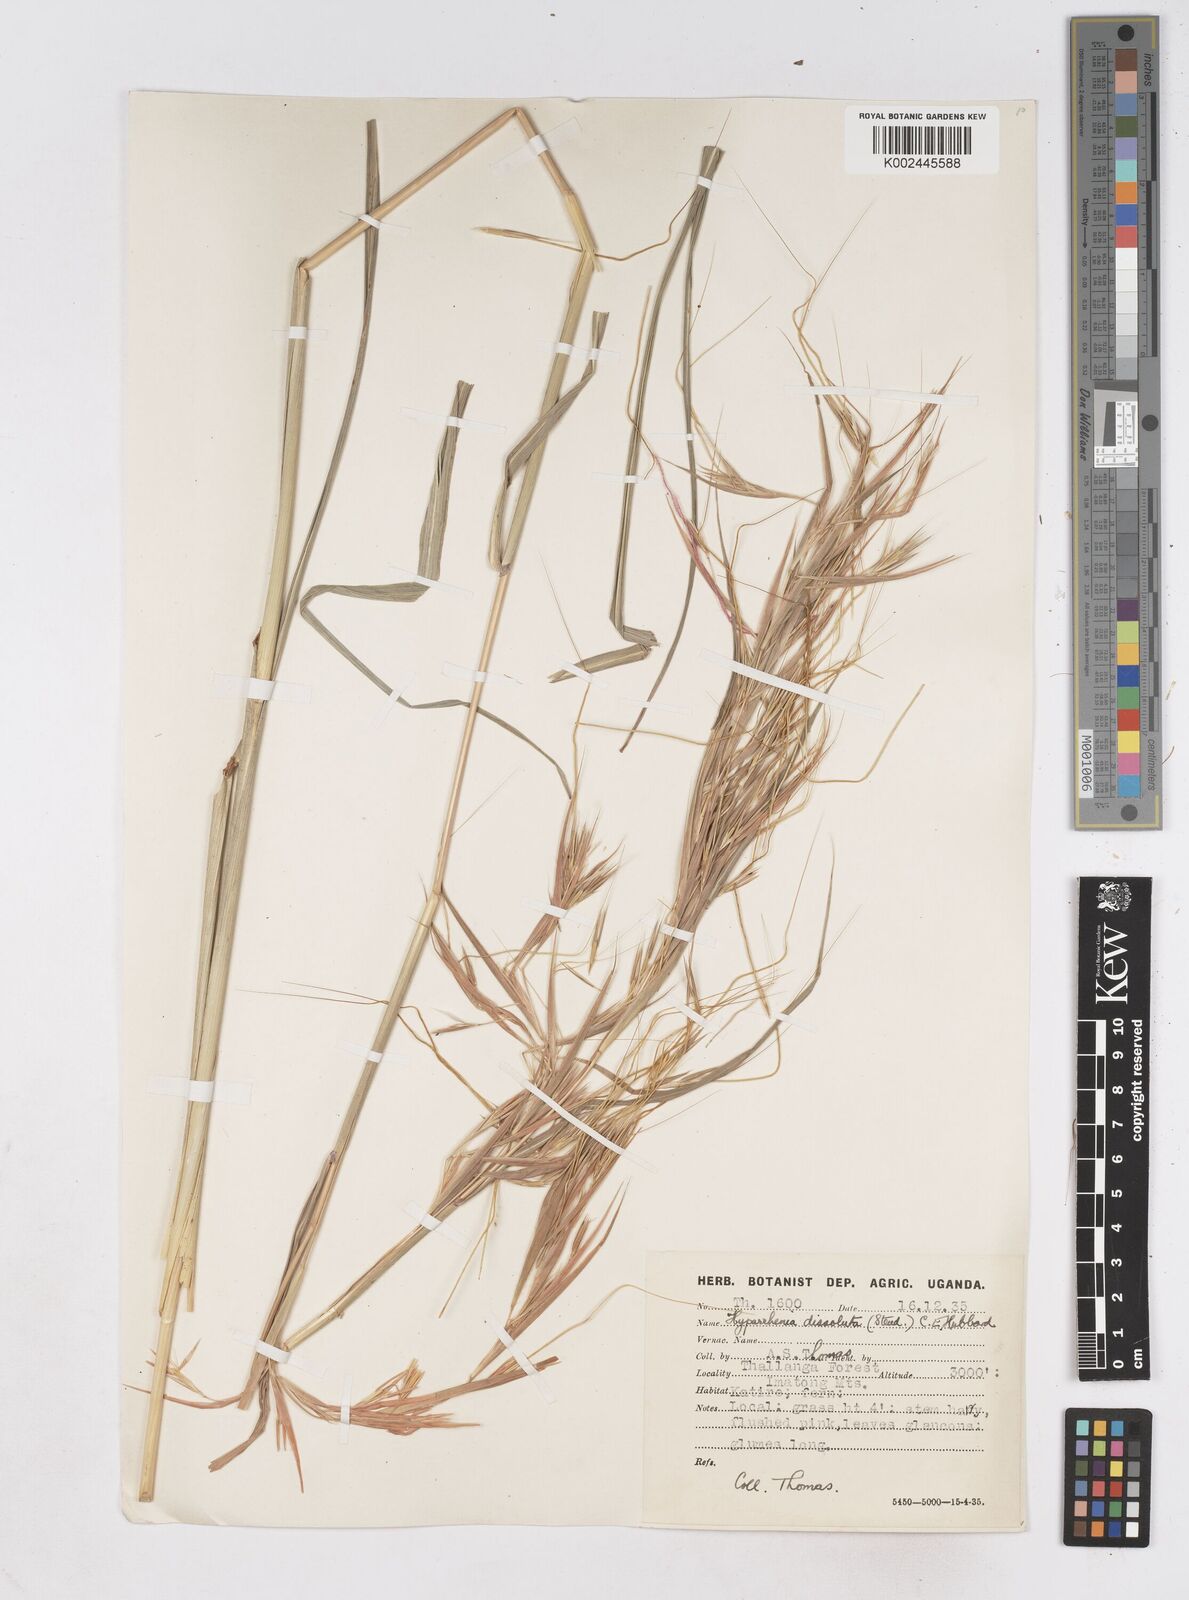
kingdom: Plantae
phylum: Tracheophyta
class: Liliopsida
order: Poales
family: Poaceae
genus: Hyperthelia
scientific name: Hyperthelia dissoluta
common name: Yellow thatching grass
